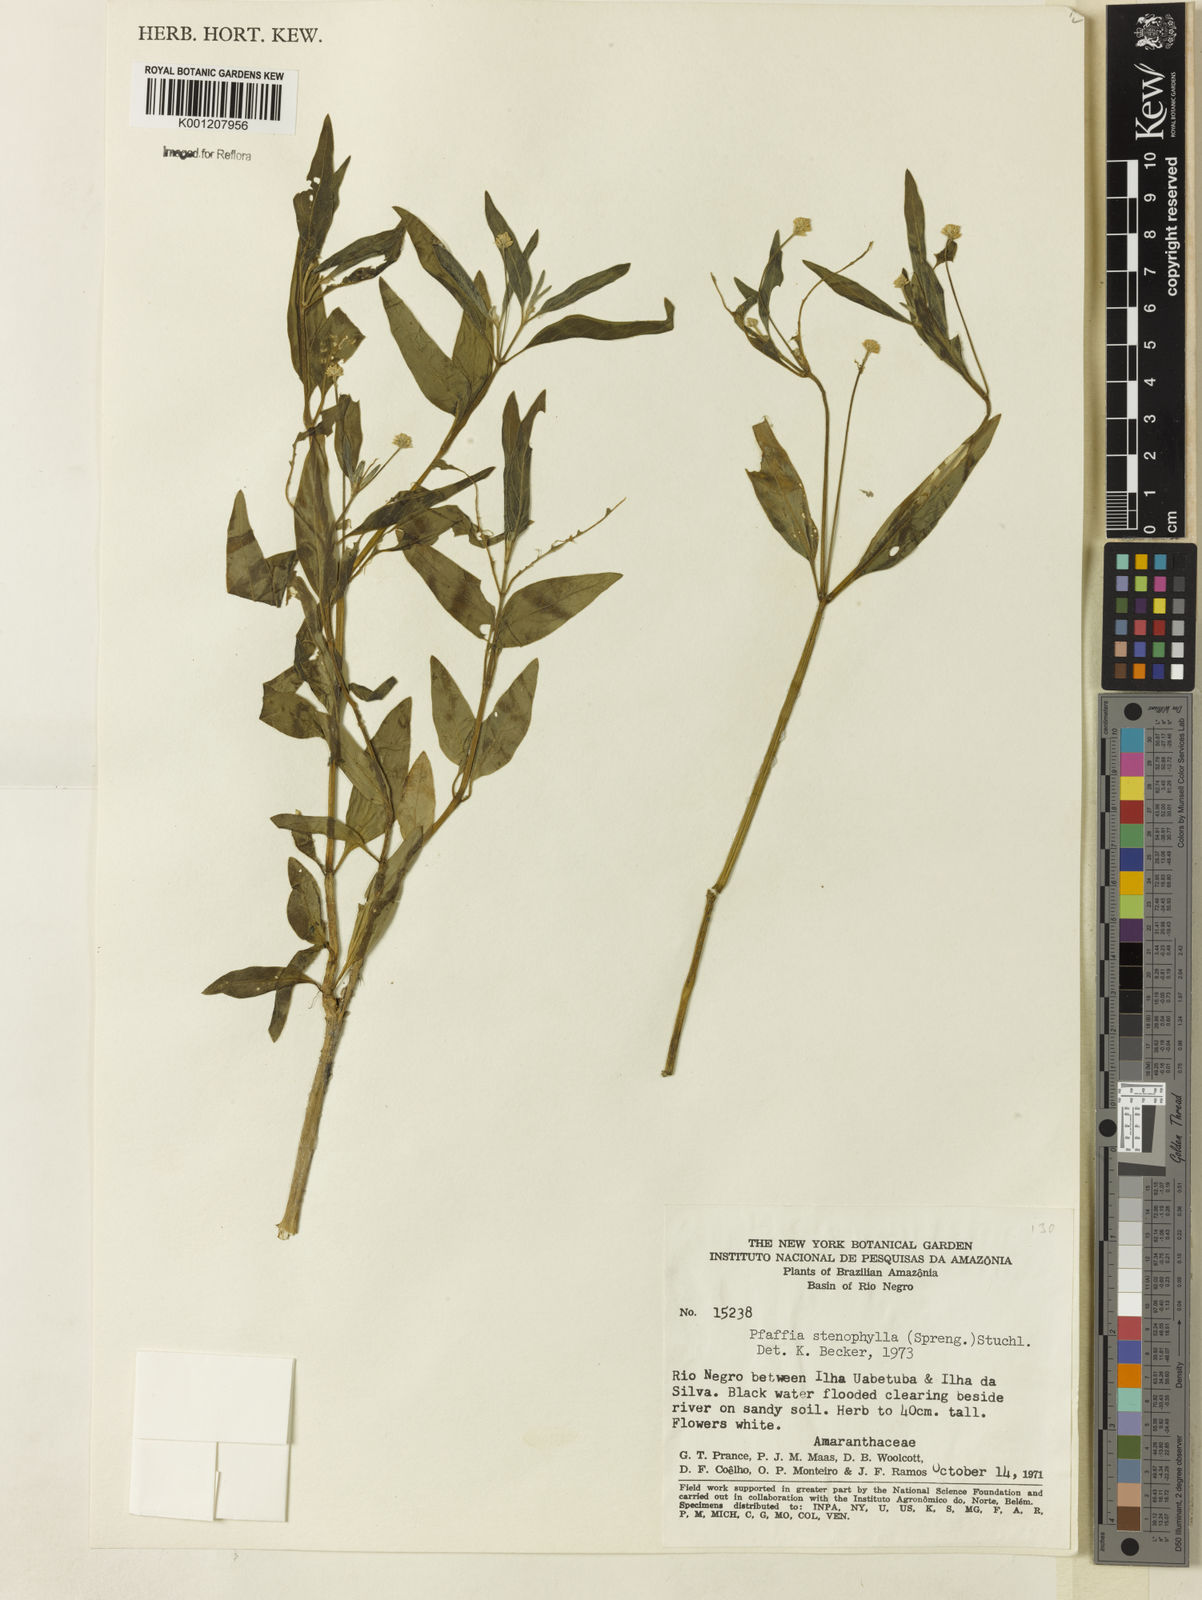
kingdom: Plantae
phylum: Tracheophyta
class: Magnoliopsida
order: Caryophyllales
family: Amaranthaceae
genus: Pfaffia
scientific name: Pfaffia
